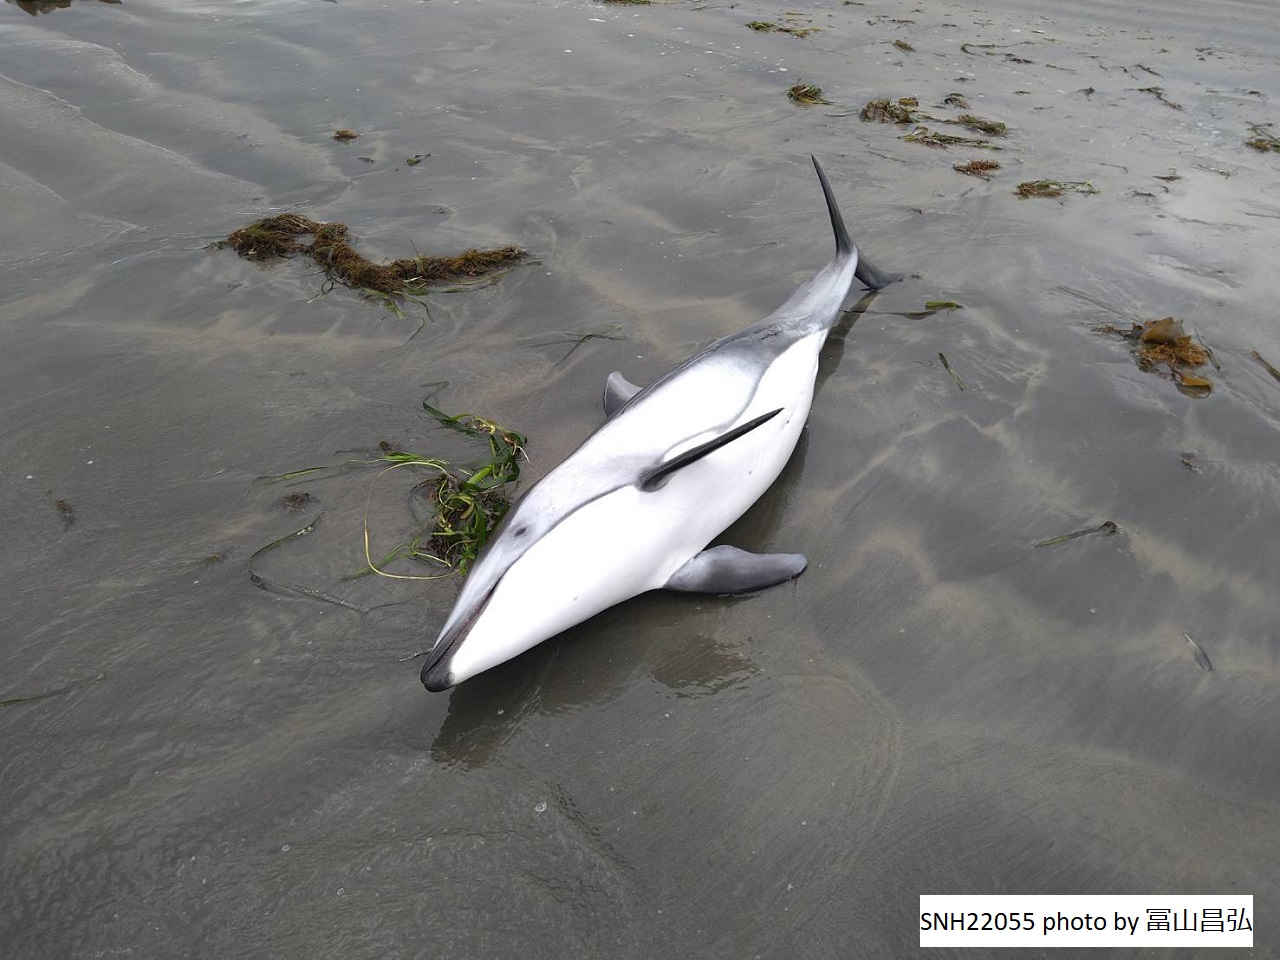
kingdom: Animalia
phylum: Chordata
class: Mammalia
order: Cetacea
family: Delphinidae
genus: Lagenorhynchus
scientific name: Lagenorhynchus obliquidens
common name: Pacific white-sided dolphin
